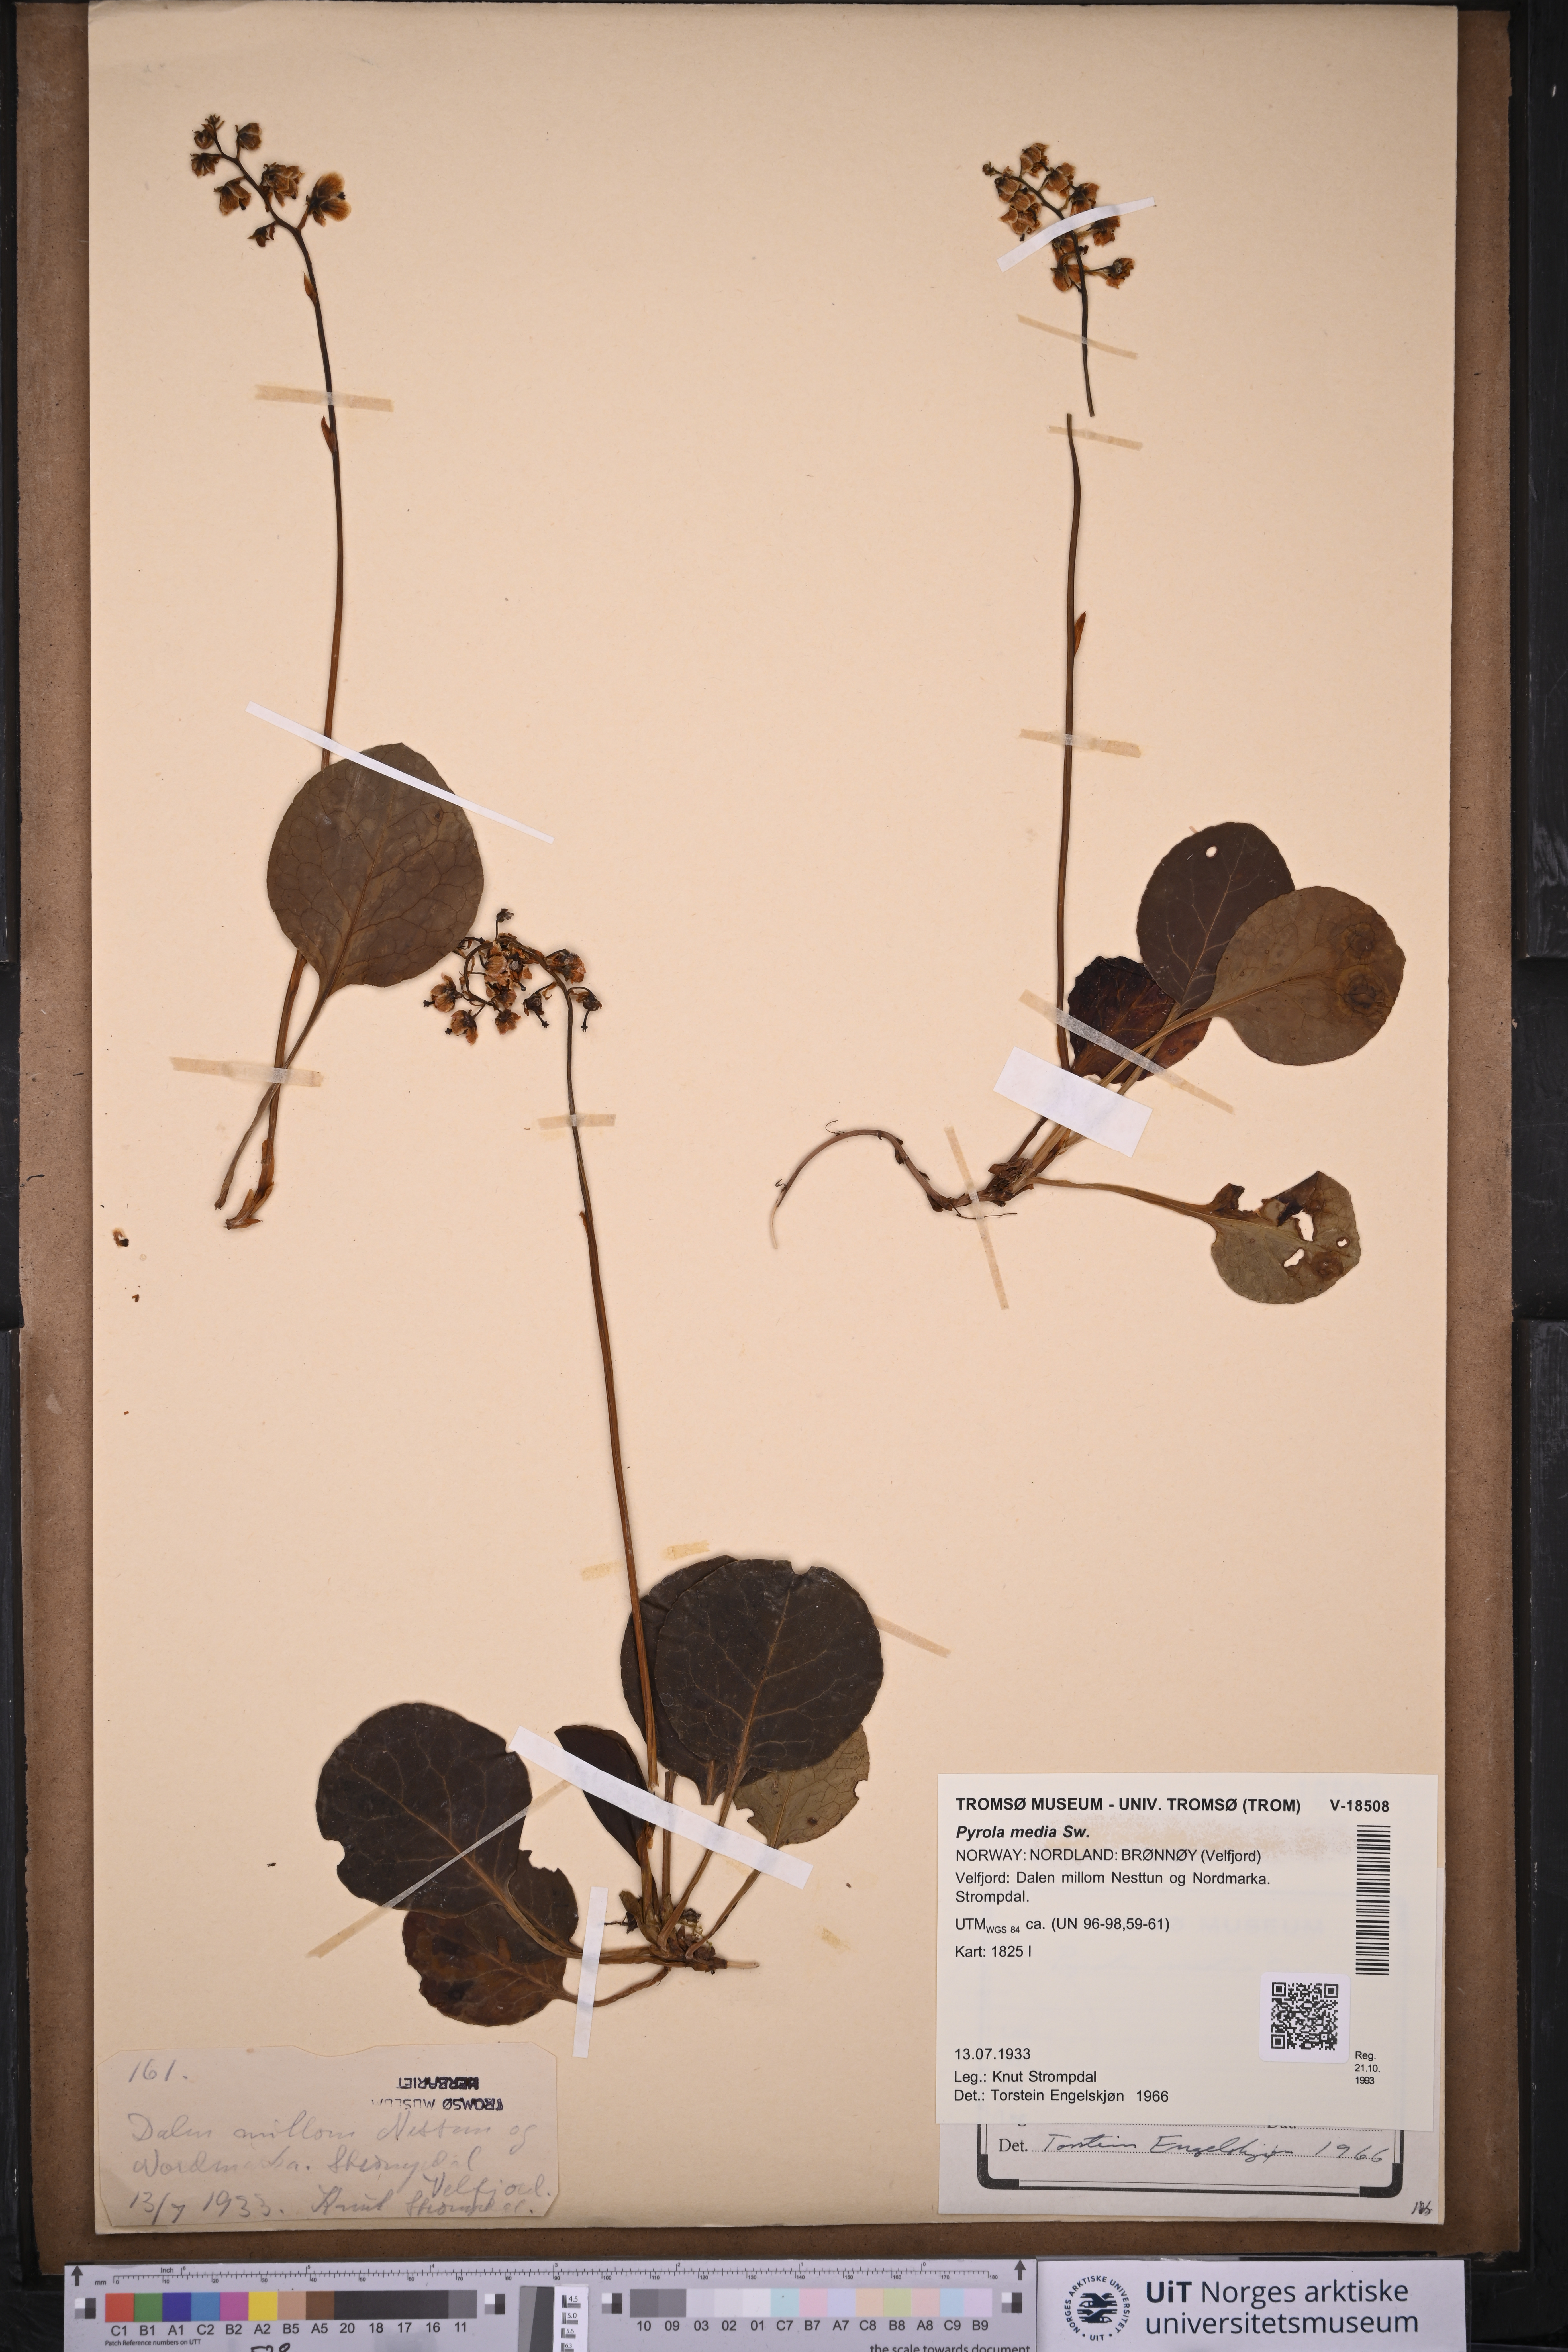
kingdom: Plantae
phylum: Tracheophyta
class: Magnoliopsida
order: Ericales
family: Ericaceae
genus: Pyrola
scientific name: Pyrola media
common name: Intermediate wintergreen
